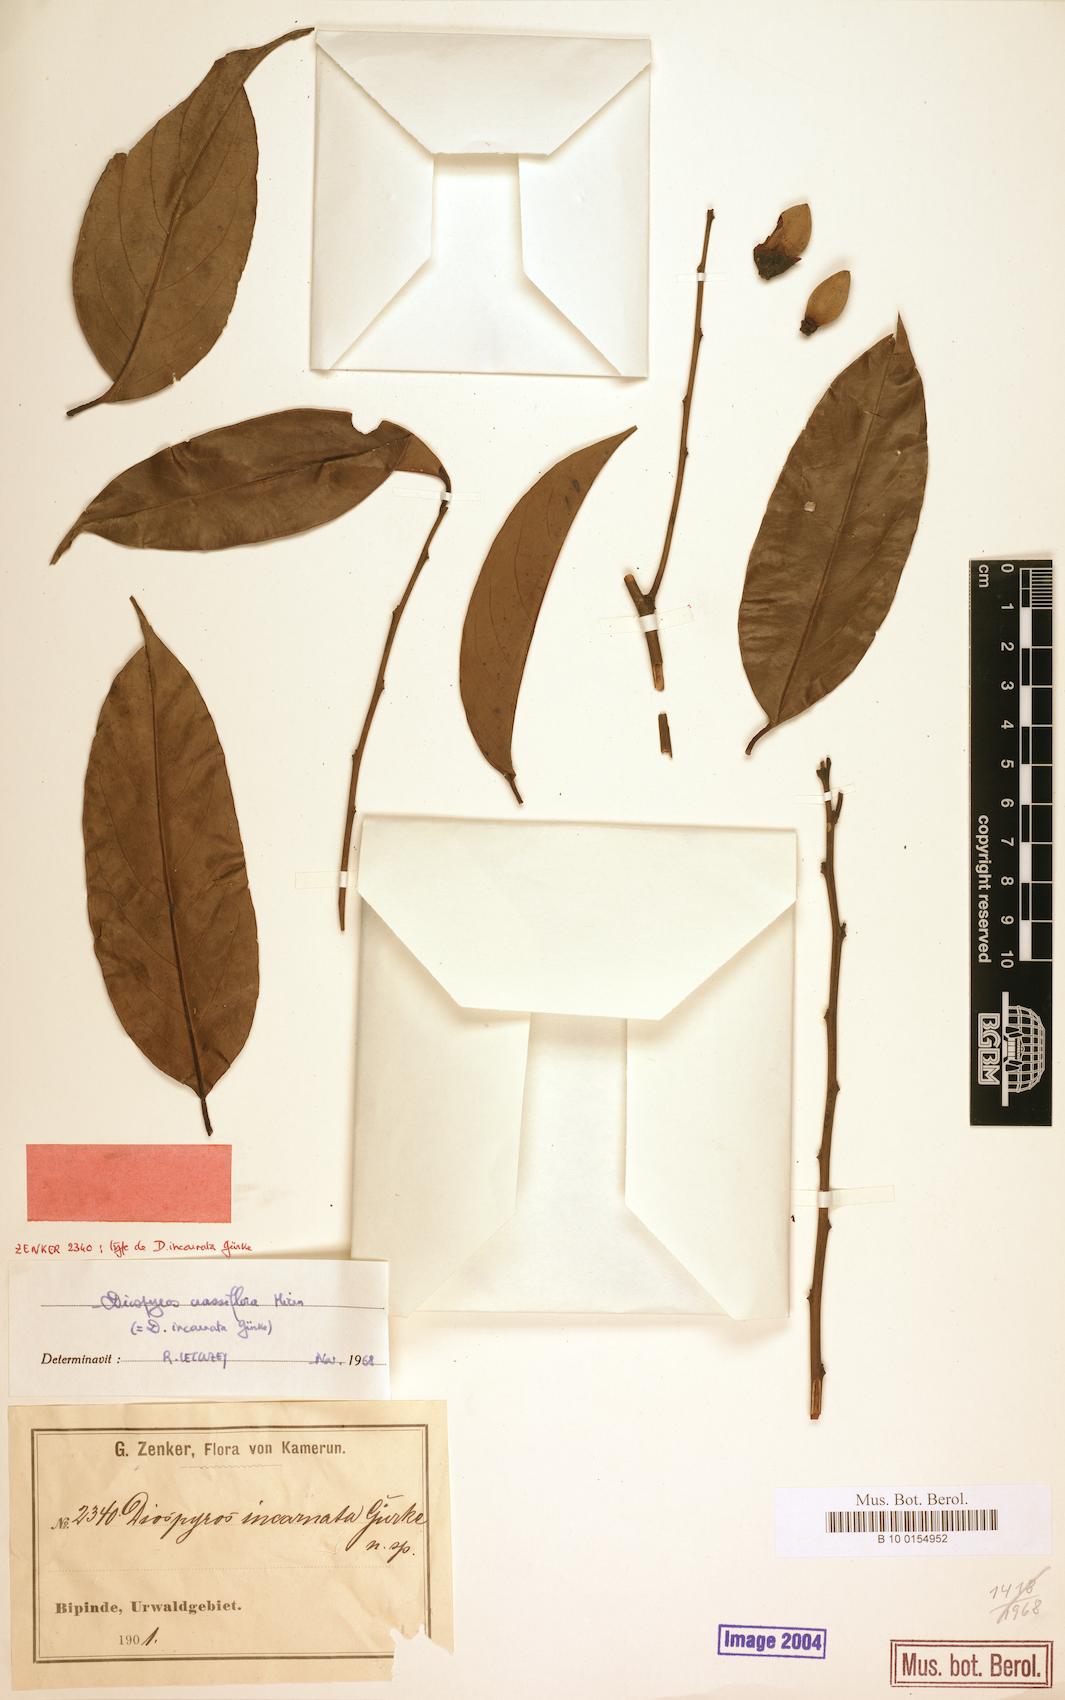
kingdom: Plantae
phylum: Tracheophyta
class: Magnoliopsida
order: Ericales
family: Ebenaceae
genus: Diospyros
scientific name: Diospyros crassiflora
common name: Ebony
